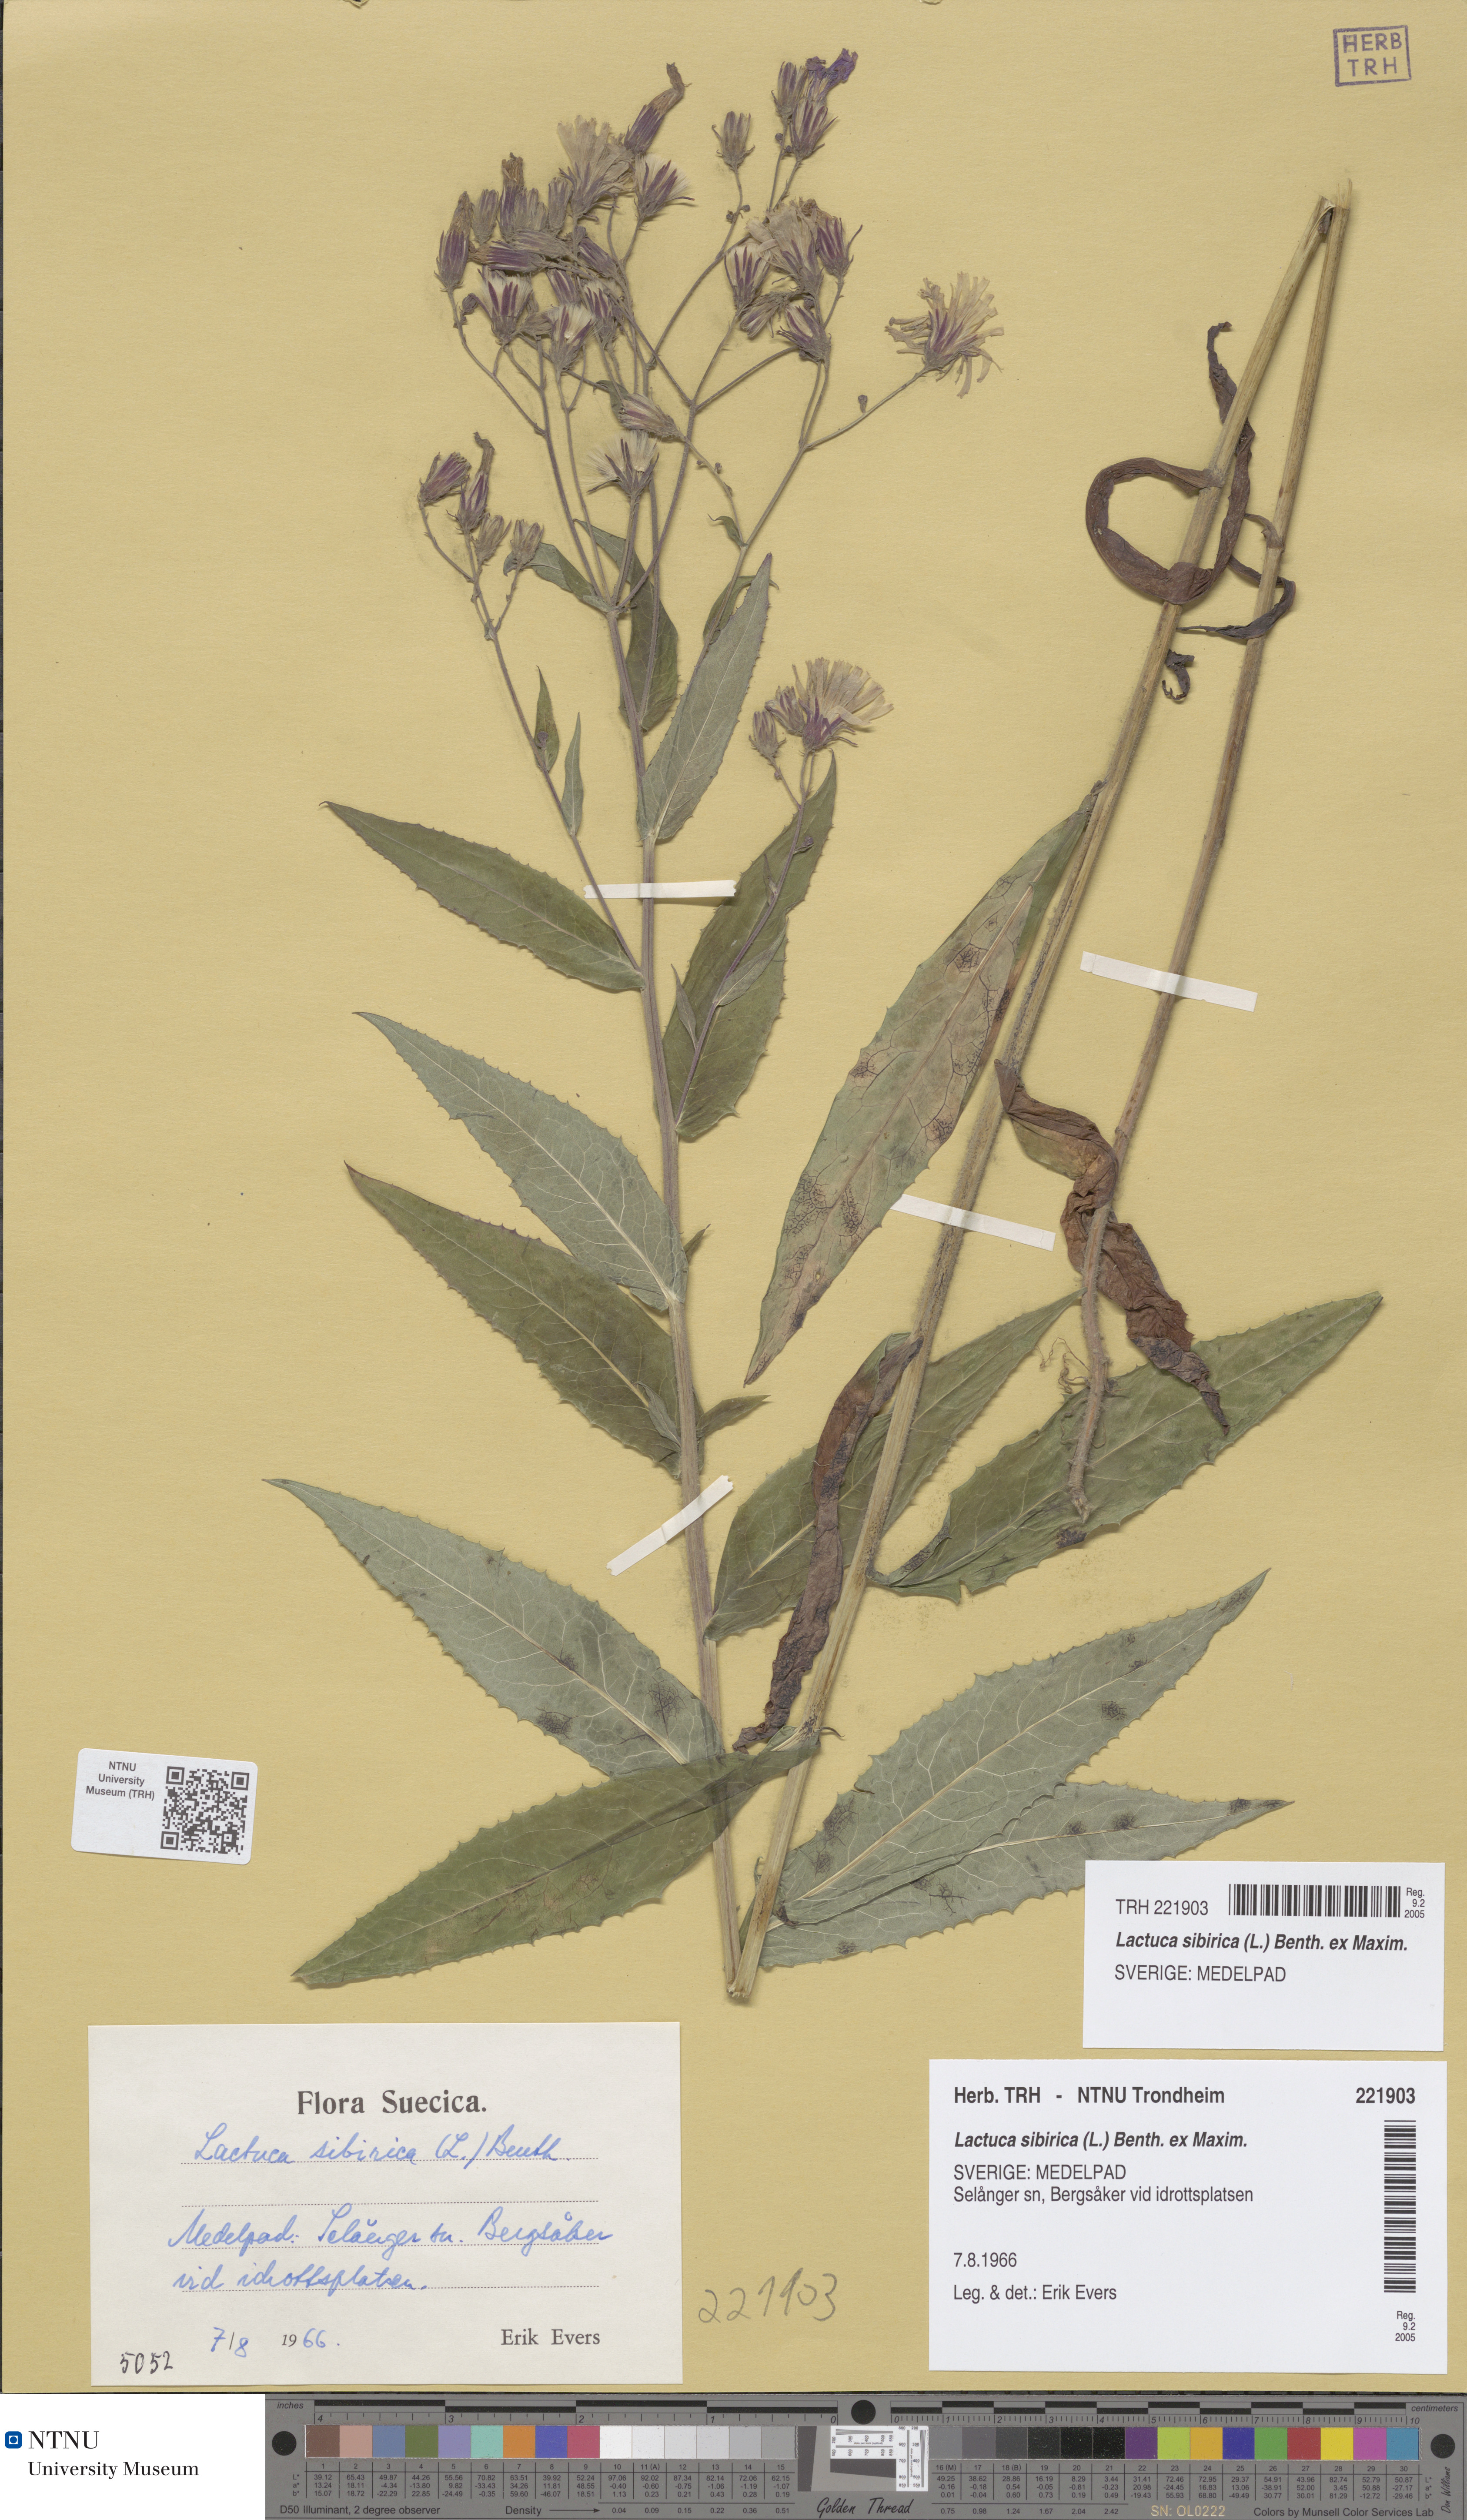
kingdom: Plantae
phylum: Tracheophyta
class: Magnoliopsida
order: Asterales
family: Asteraceae
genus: Lactuca
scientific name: Lactuca sibirica
